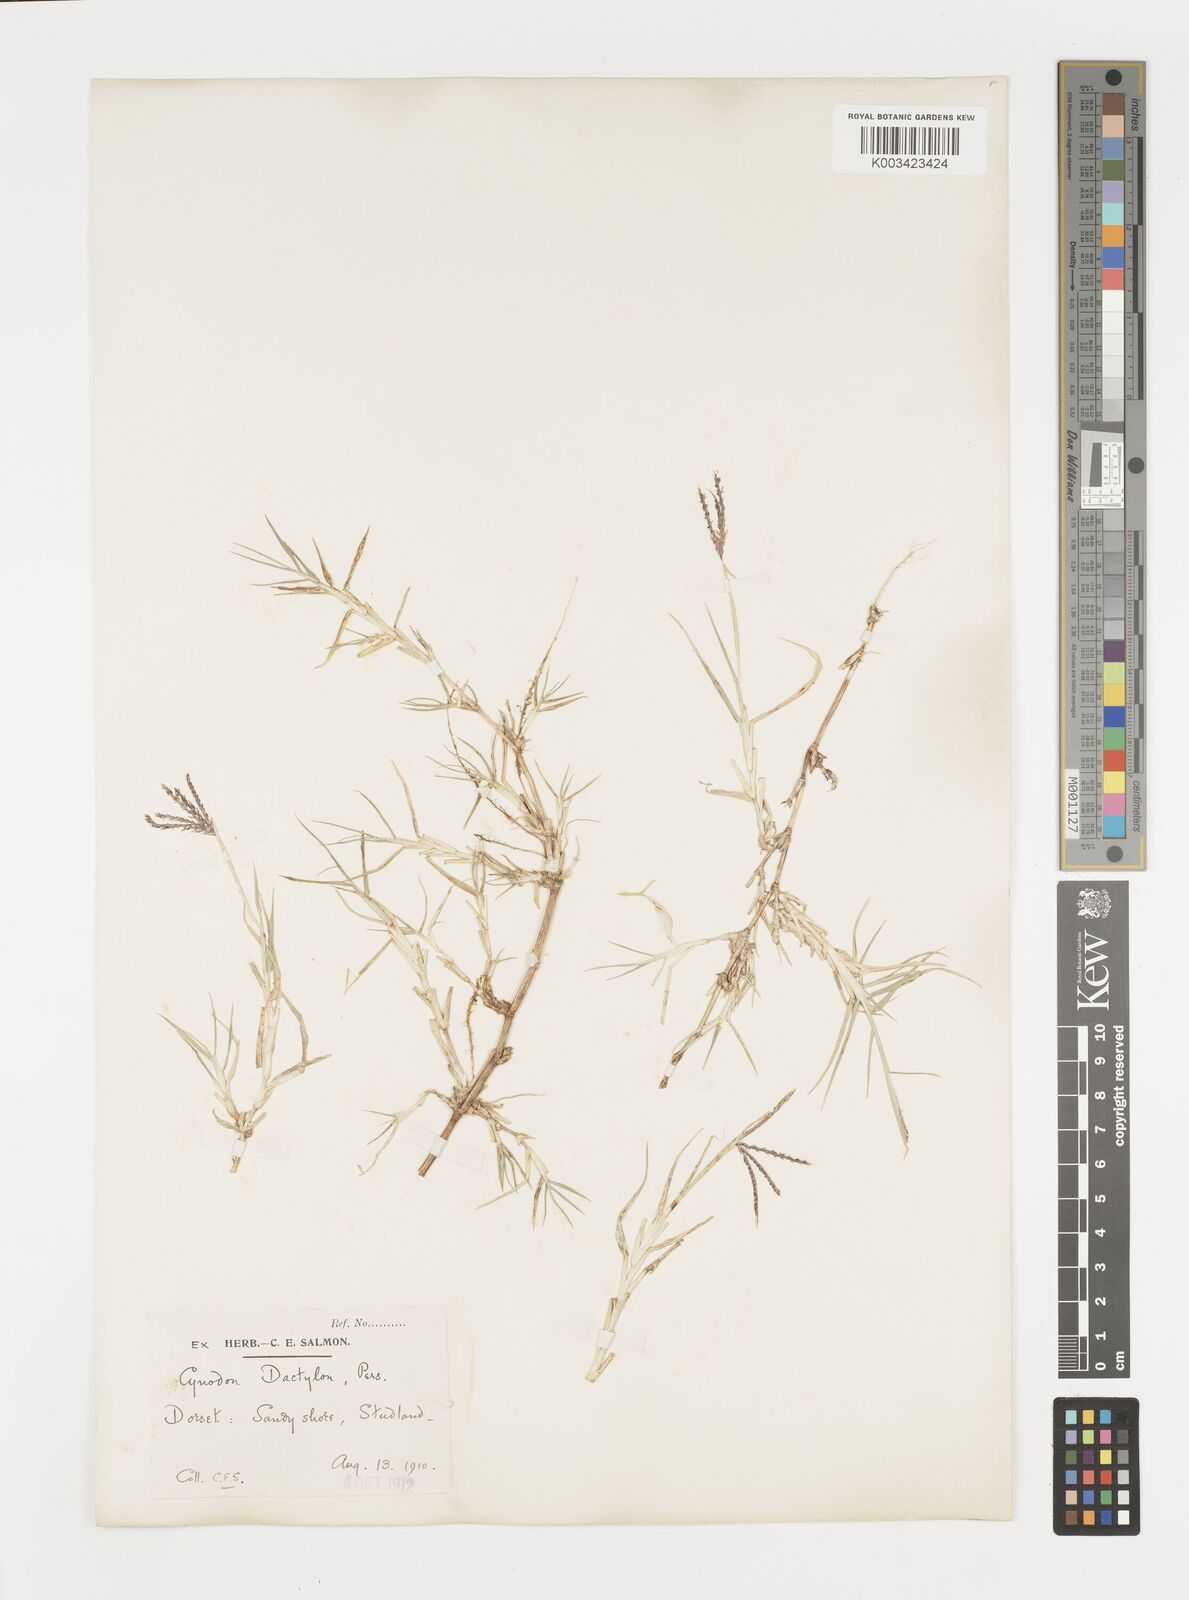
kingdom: Plantae
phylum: Tracheophyta
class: Liliopsida
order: Poales
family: Poaceae
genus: Cynodon
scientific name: Cynodon dactylon
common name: Bermuda grass
